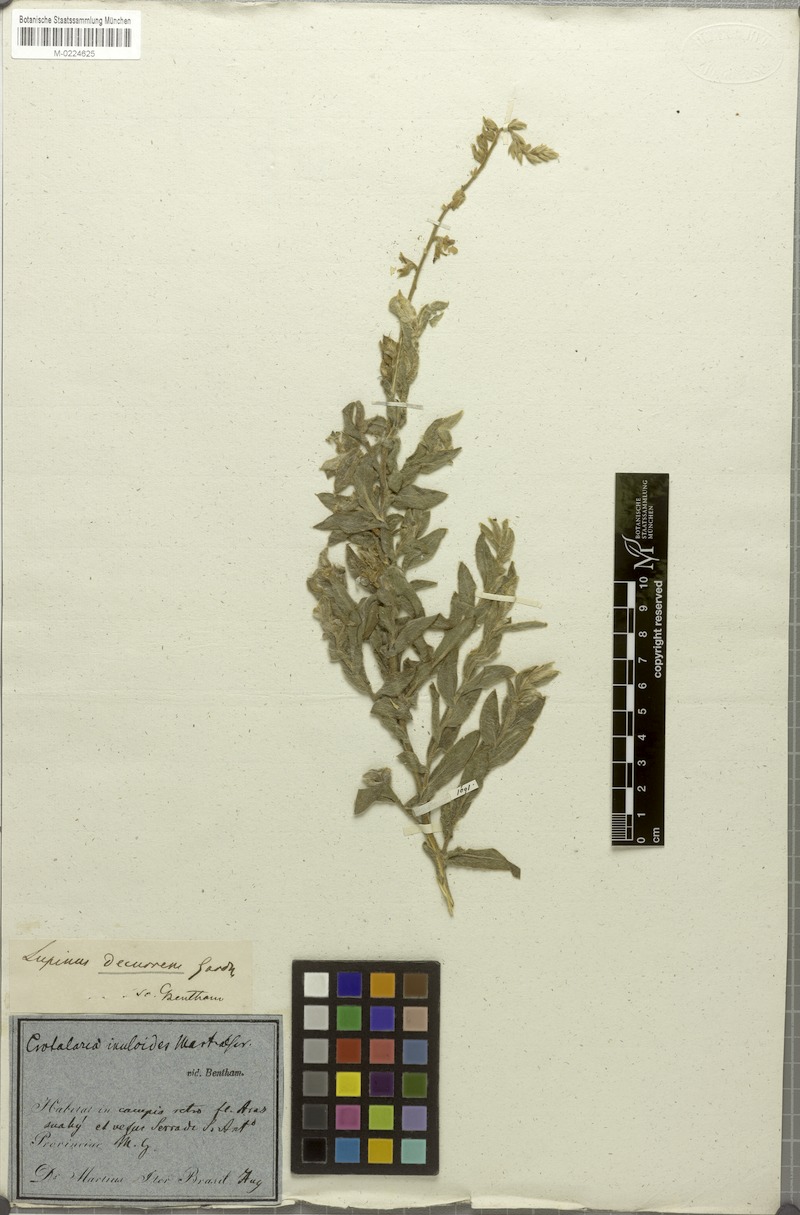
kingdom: Plantae
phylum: Tracheophyta
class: Magnoliopsida
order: Fabales
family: Fabaceae
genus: Lupinus
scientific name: Lupinus decurrens
